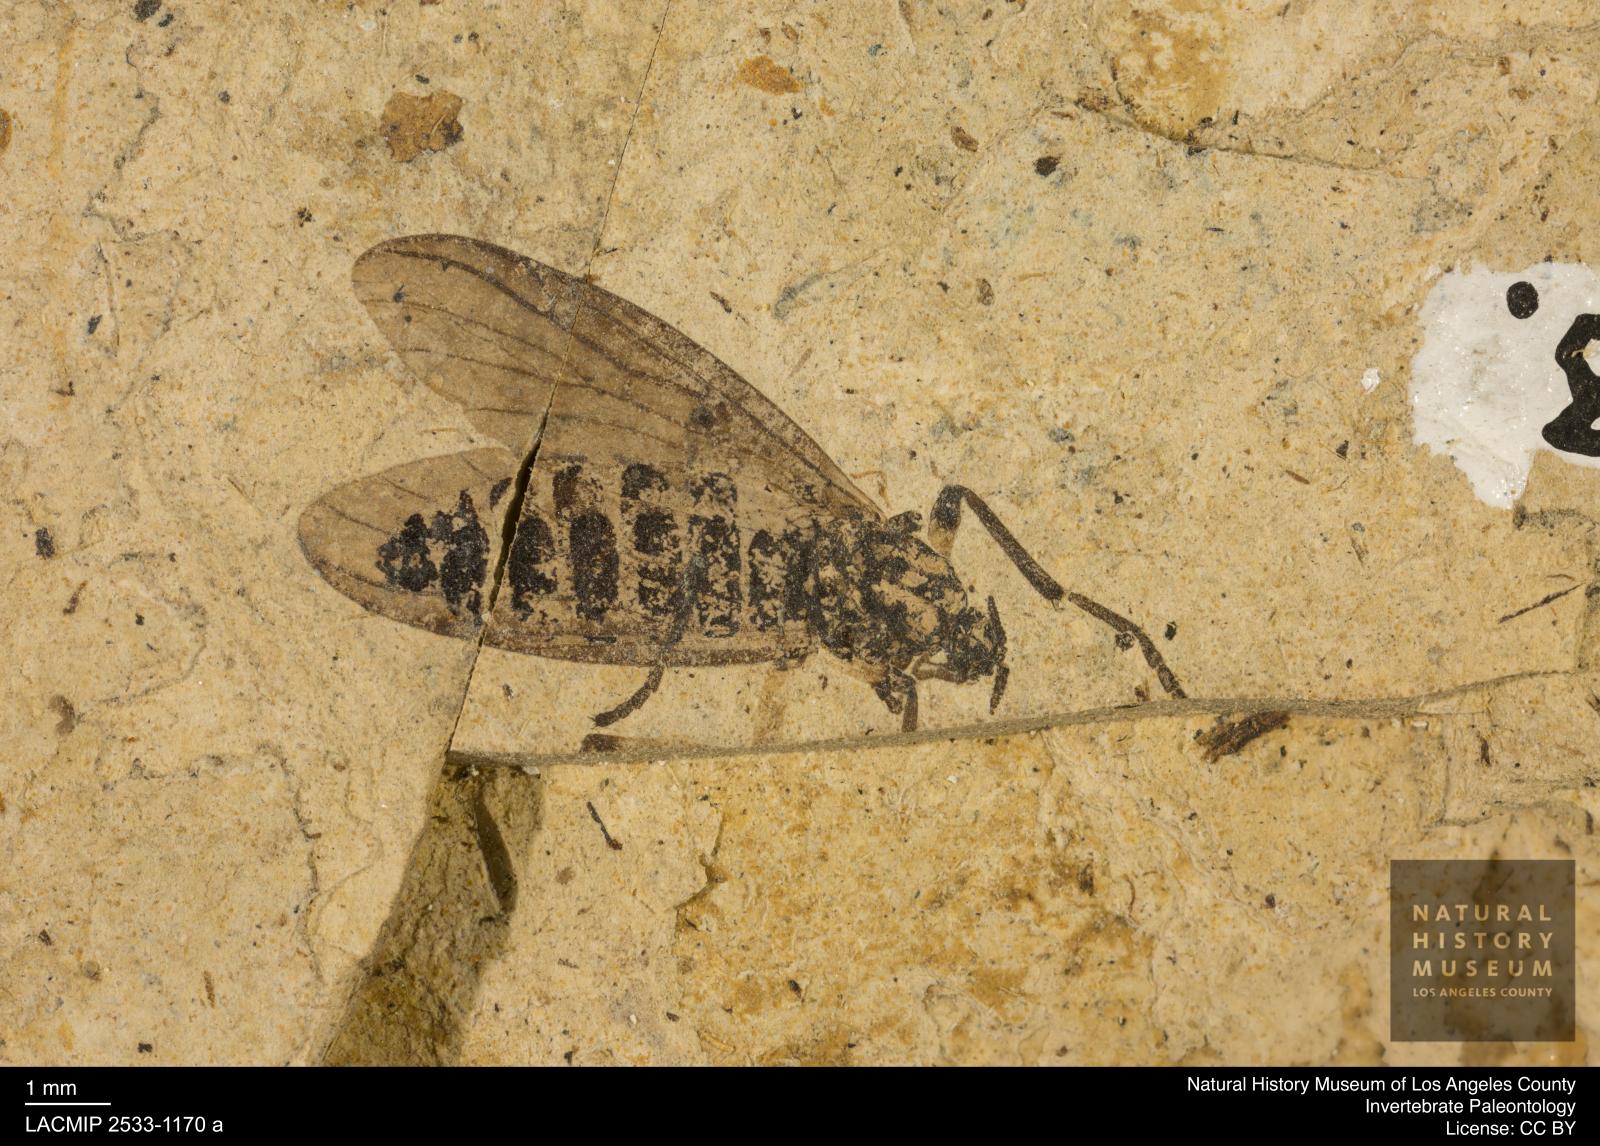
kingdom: Animalia
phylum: Arthropoda
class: Insecta
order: Diptera
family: Bibionidae
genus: Plecia
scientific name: Plecia hypogaea
